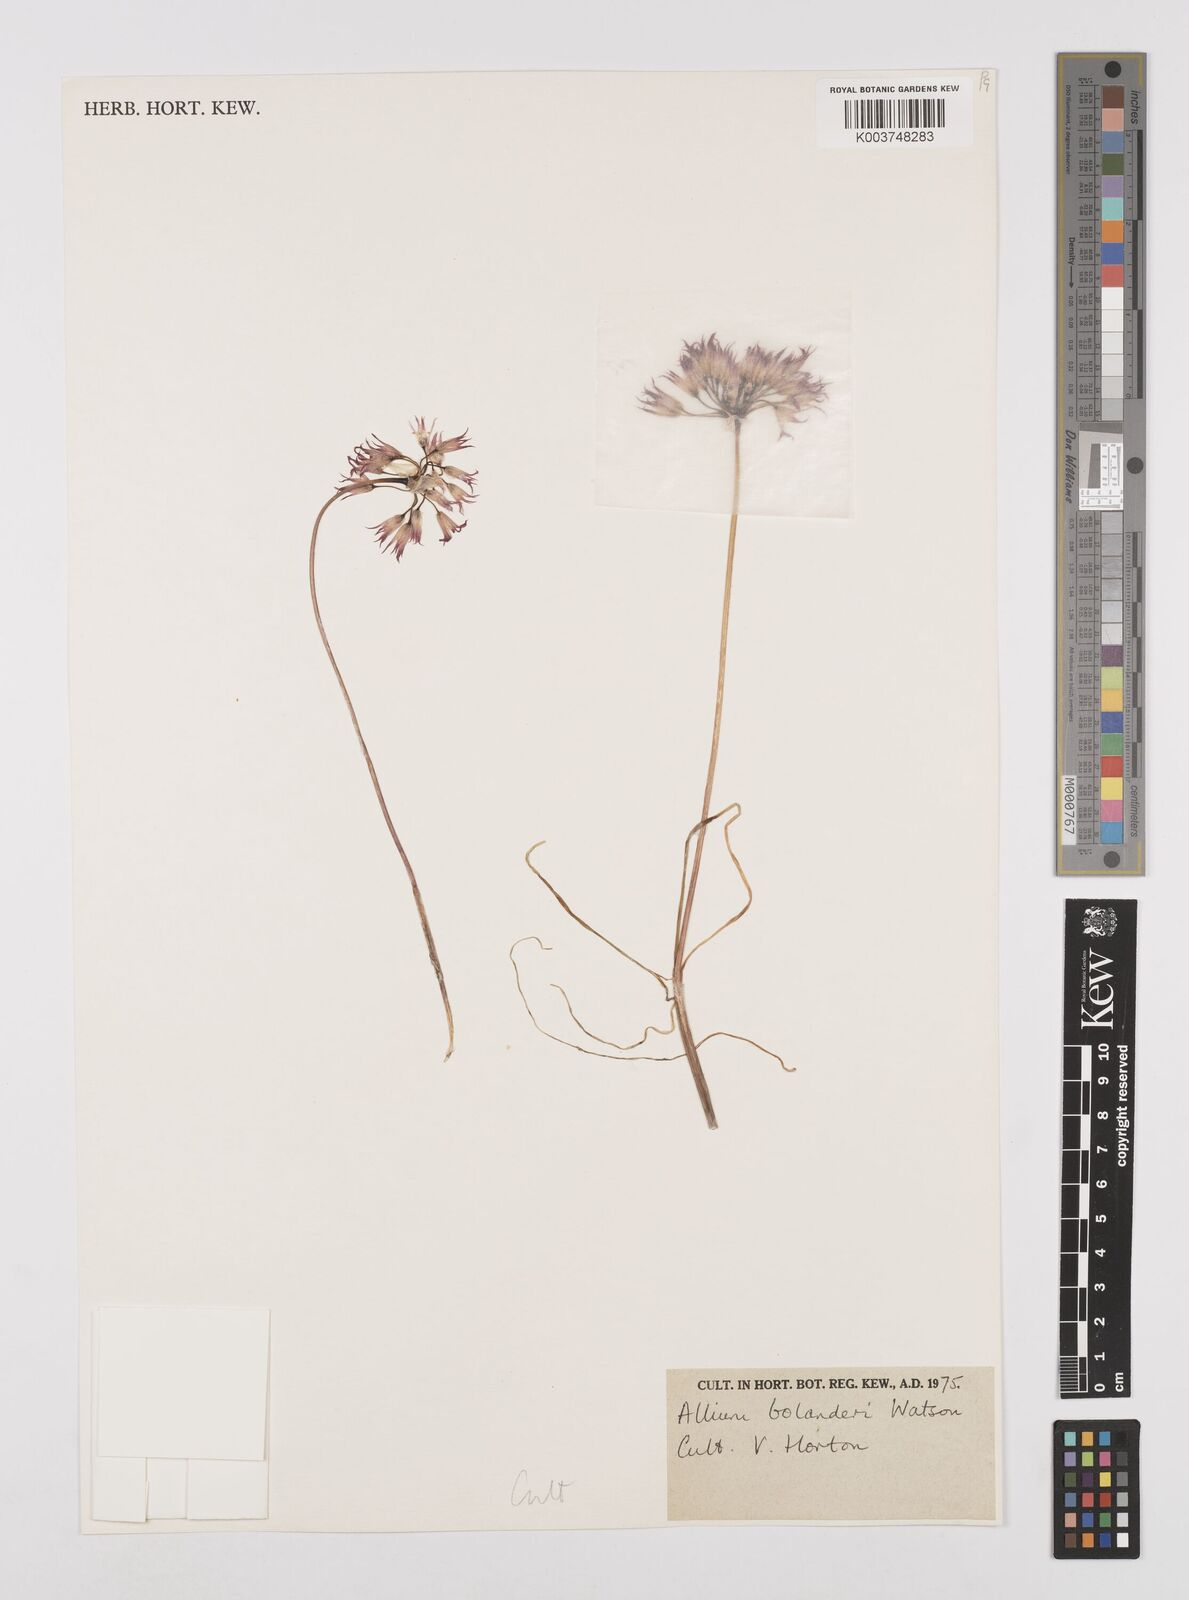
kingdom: Plantae
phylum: Tracheophyta
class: Liliopsida
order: Asparagales
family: Amaryllidaceae
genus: Allium
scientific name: Allium bolanderi
